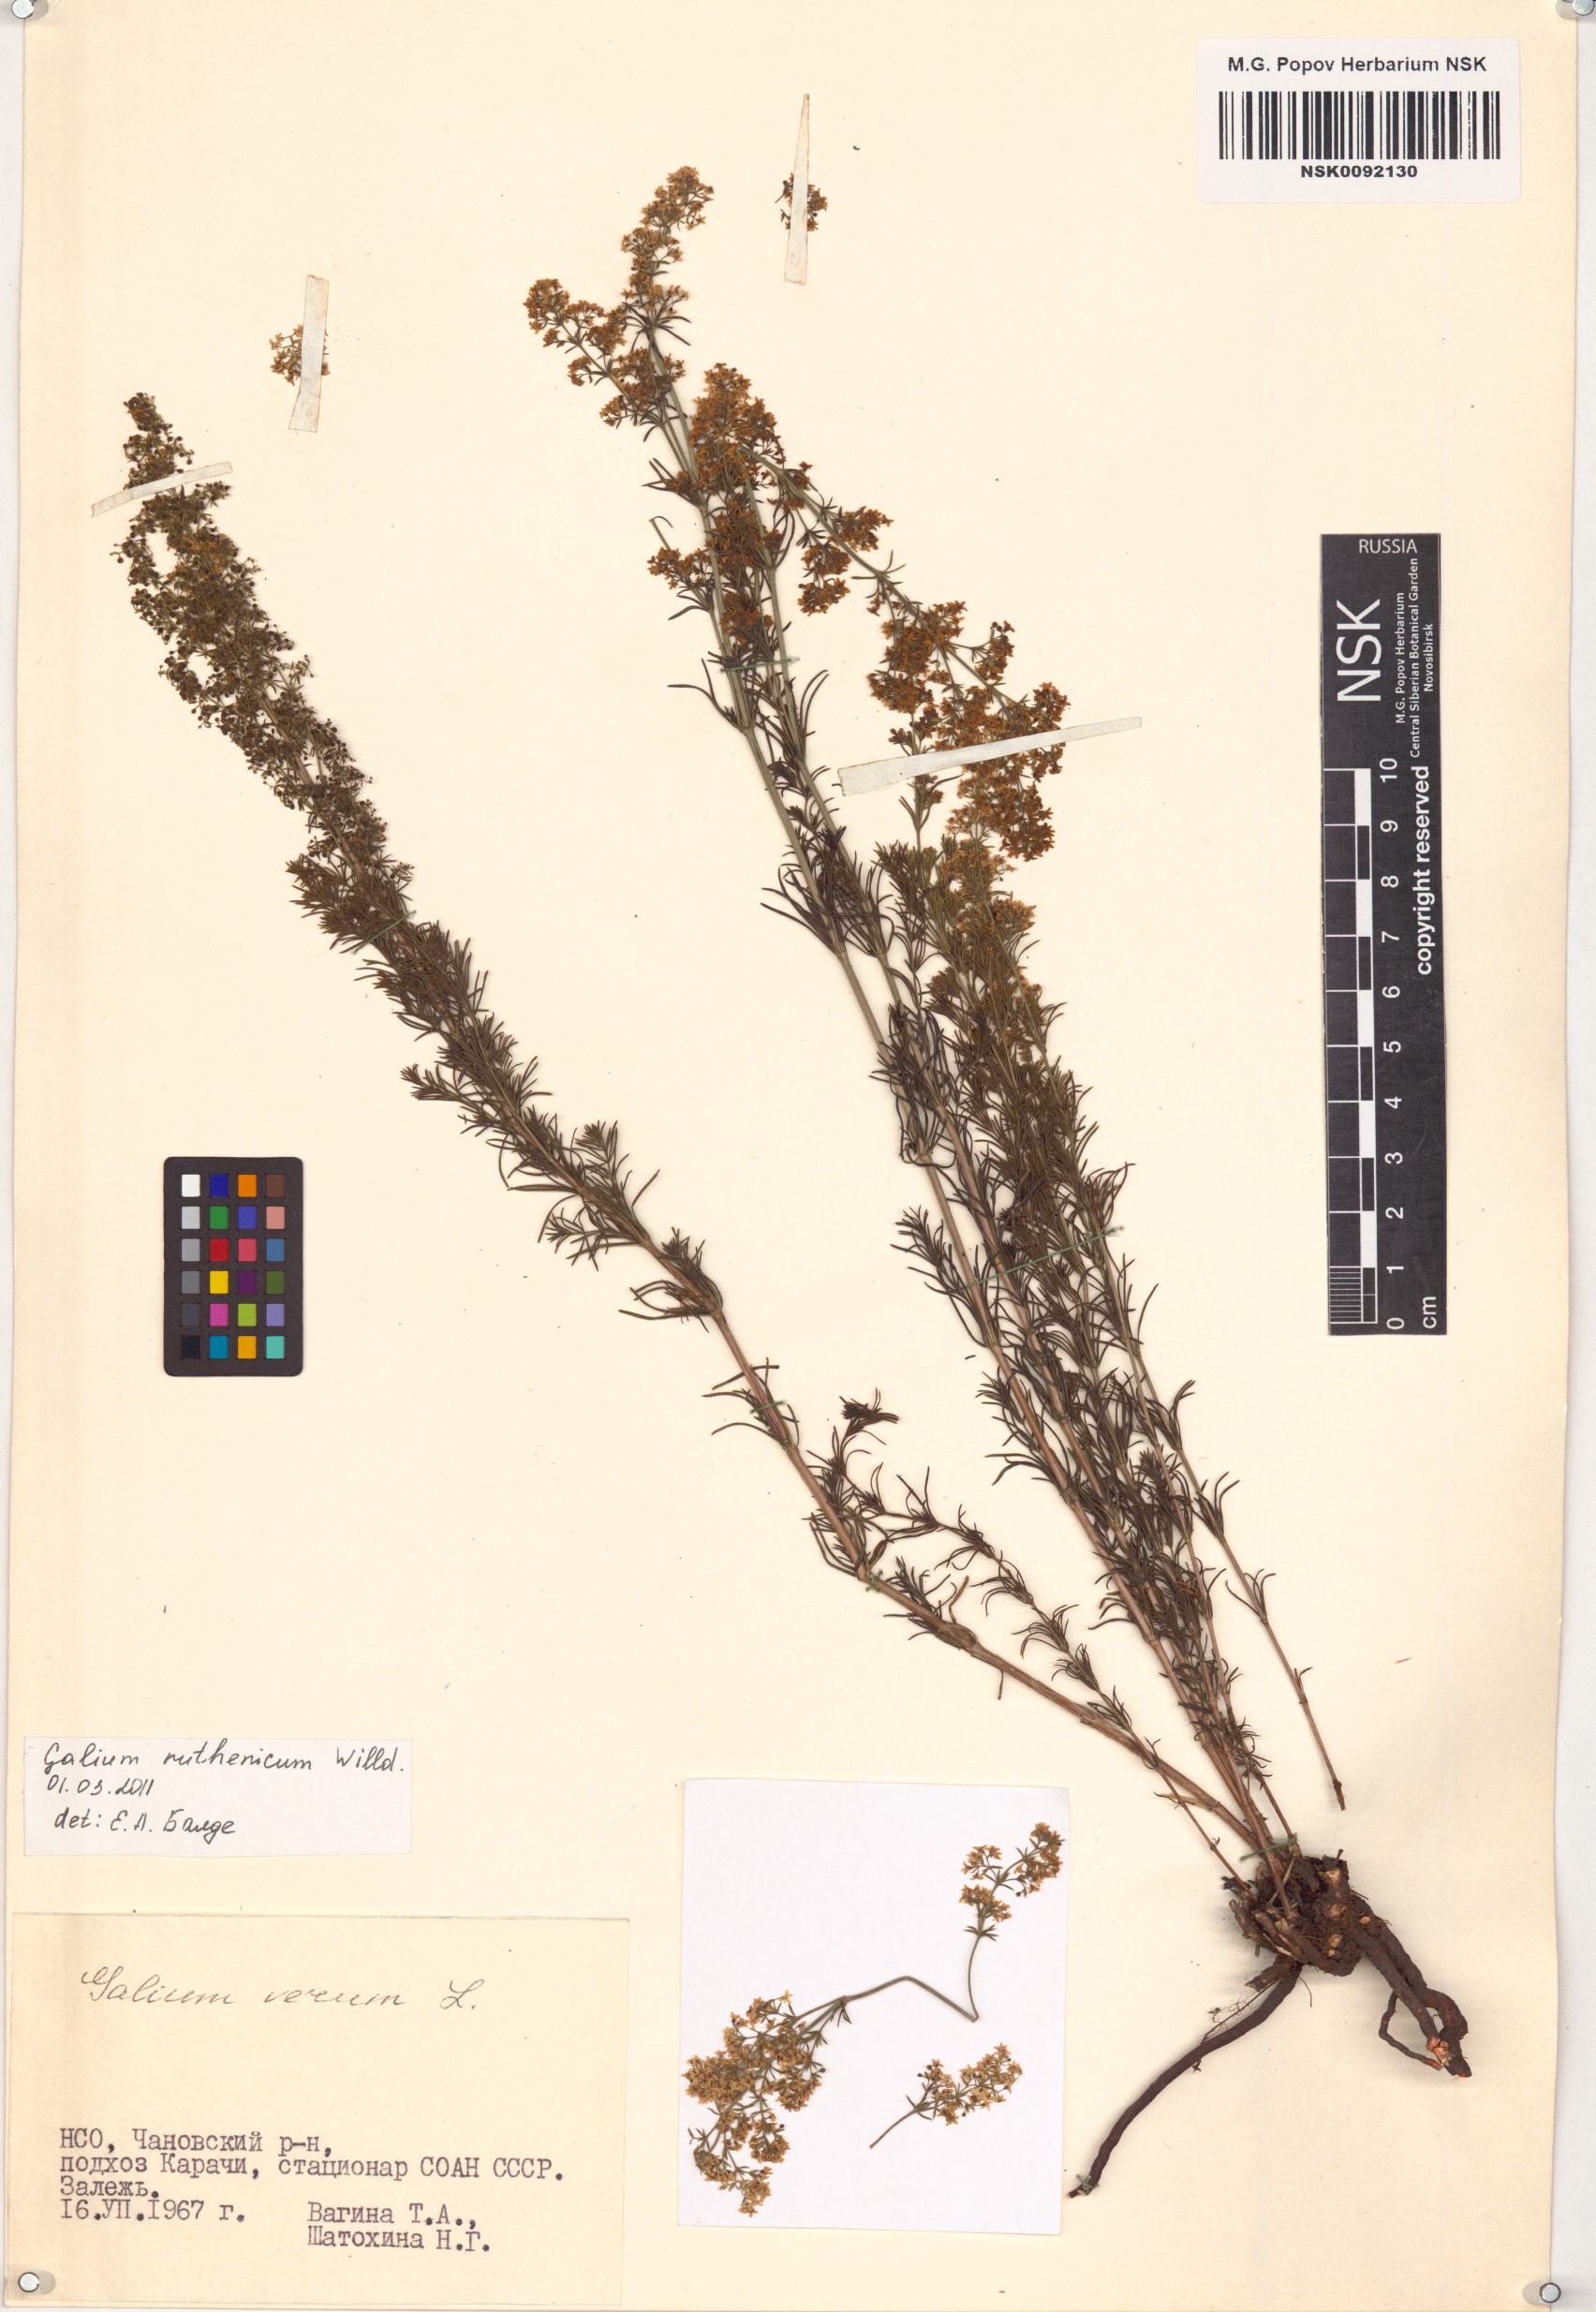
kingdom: Plantae
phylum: Tracheophyta
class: Magnoliopsida
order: Gentianales
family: Rubiaceae
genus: Galium
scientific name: Galium verum
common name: Lady's bedstraw
